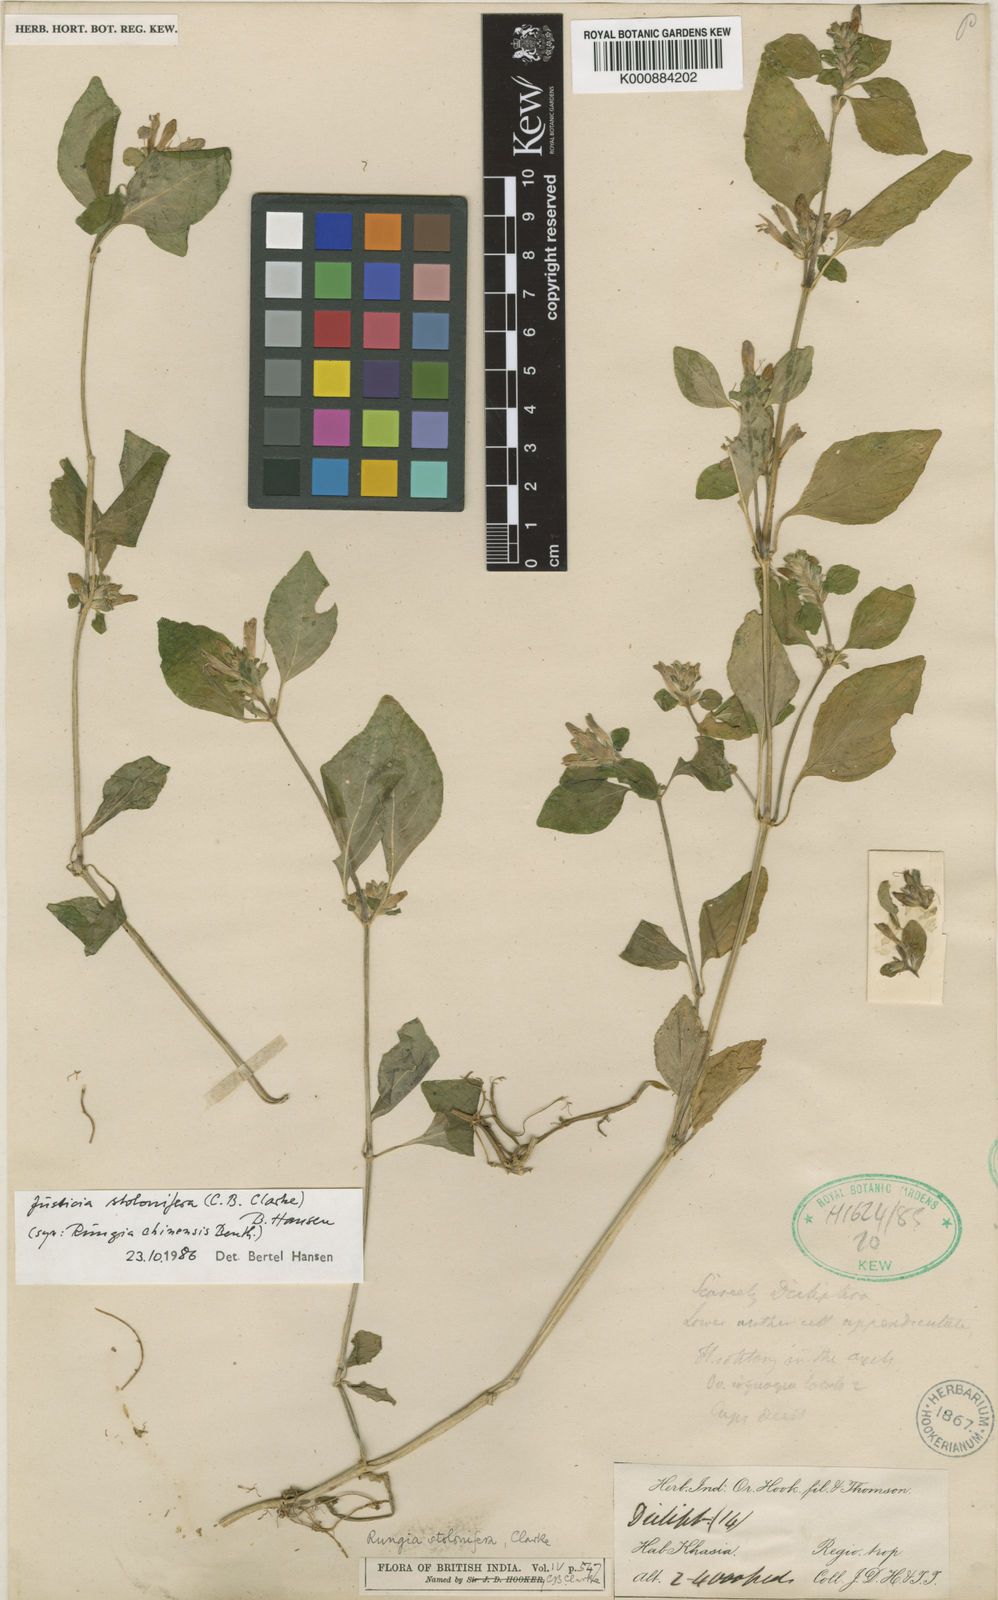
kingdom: Plantae
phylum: Tracheophyta
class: Magnoliopsida
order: Lamiales
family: Acanthaceae
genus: Rungia
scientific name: Rungia stolonifera
